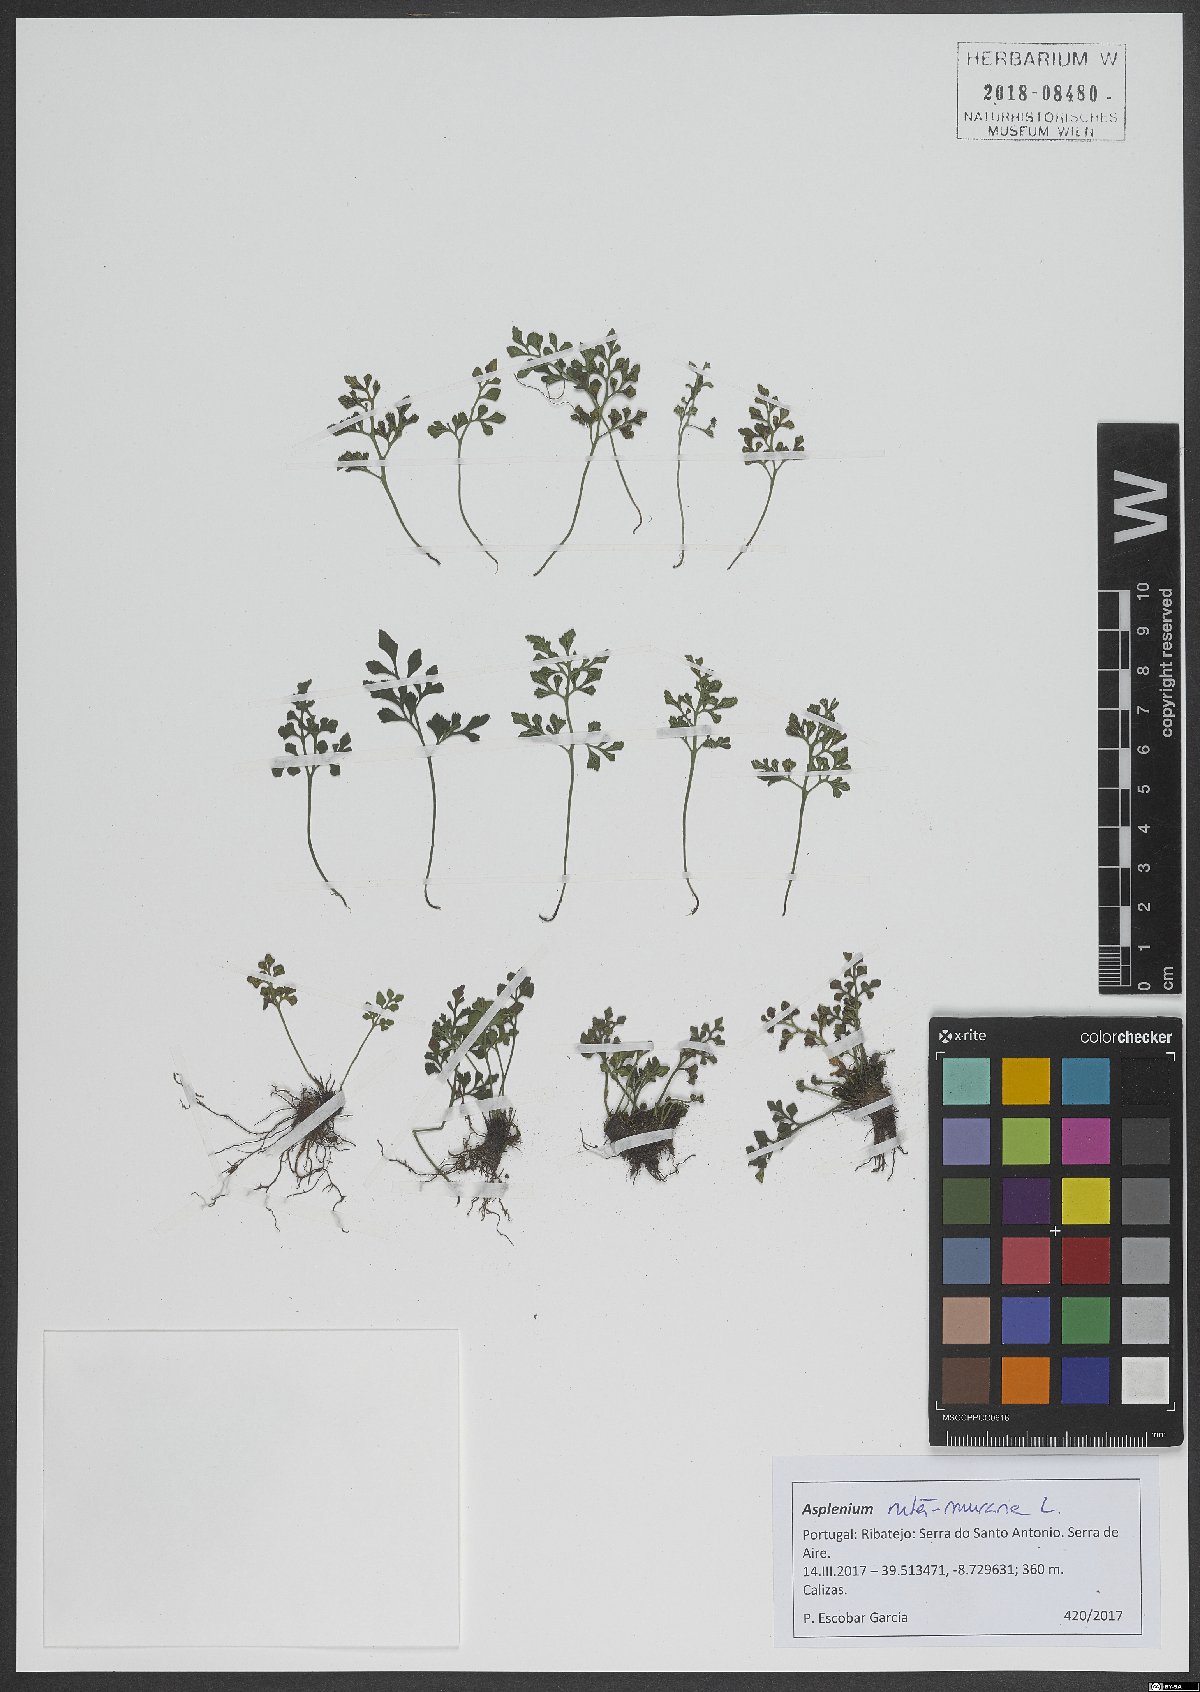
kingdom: Plantae
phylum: Tracheophyta
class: Polypodiopsida
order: Polypodiales
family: Aspleniaceae
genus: Asplenium
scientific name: Asplenium ruta-muraria
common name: Wall-rue
